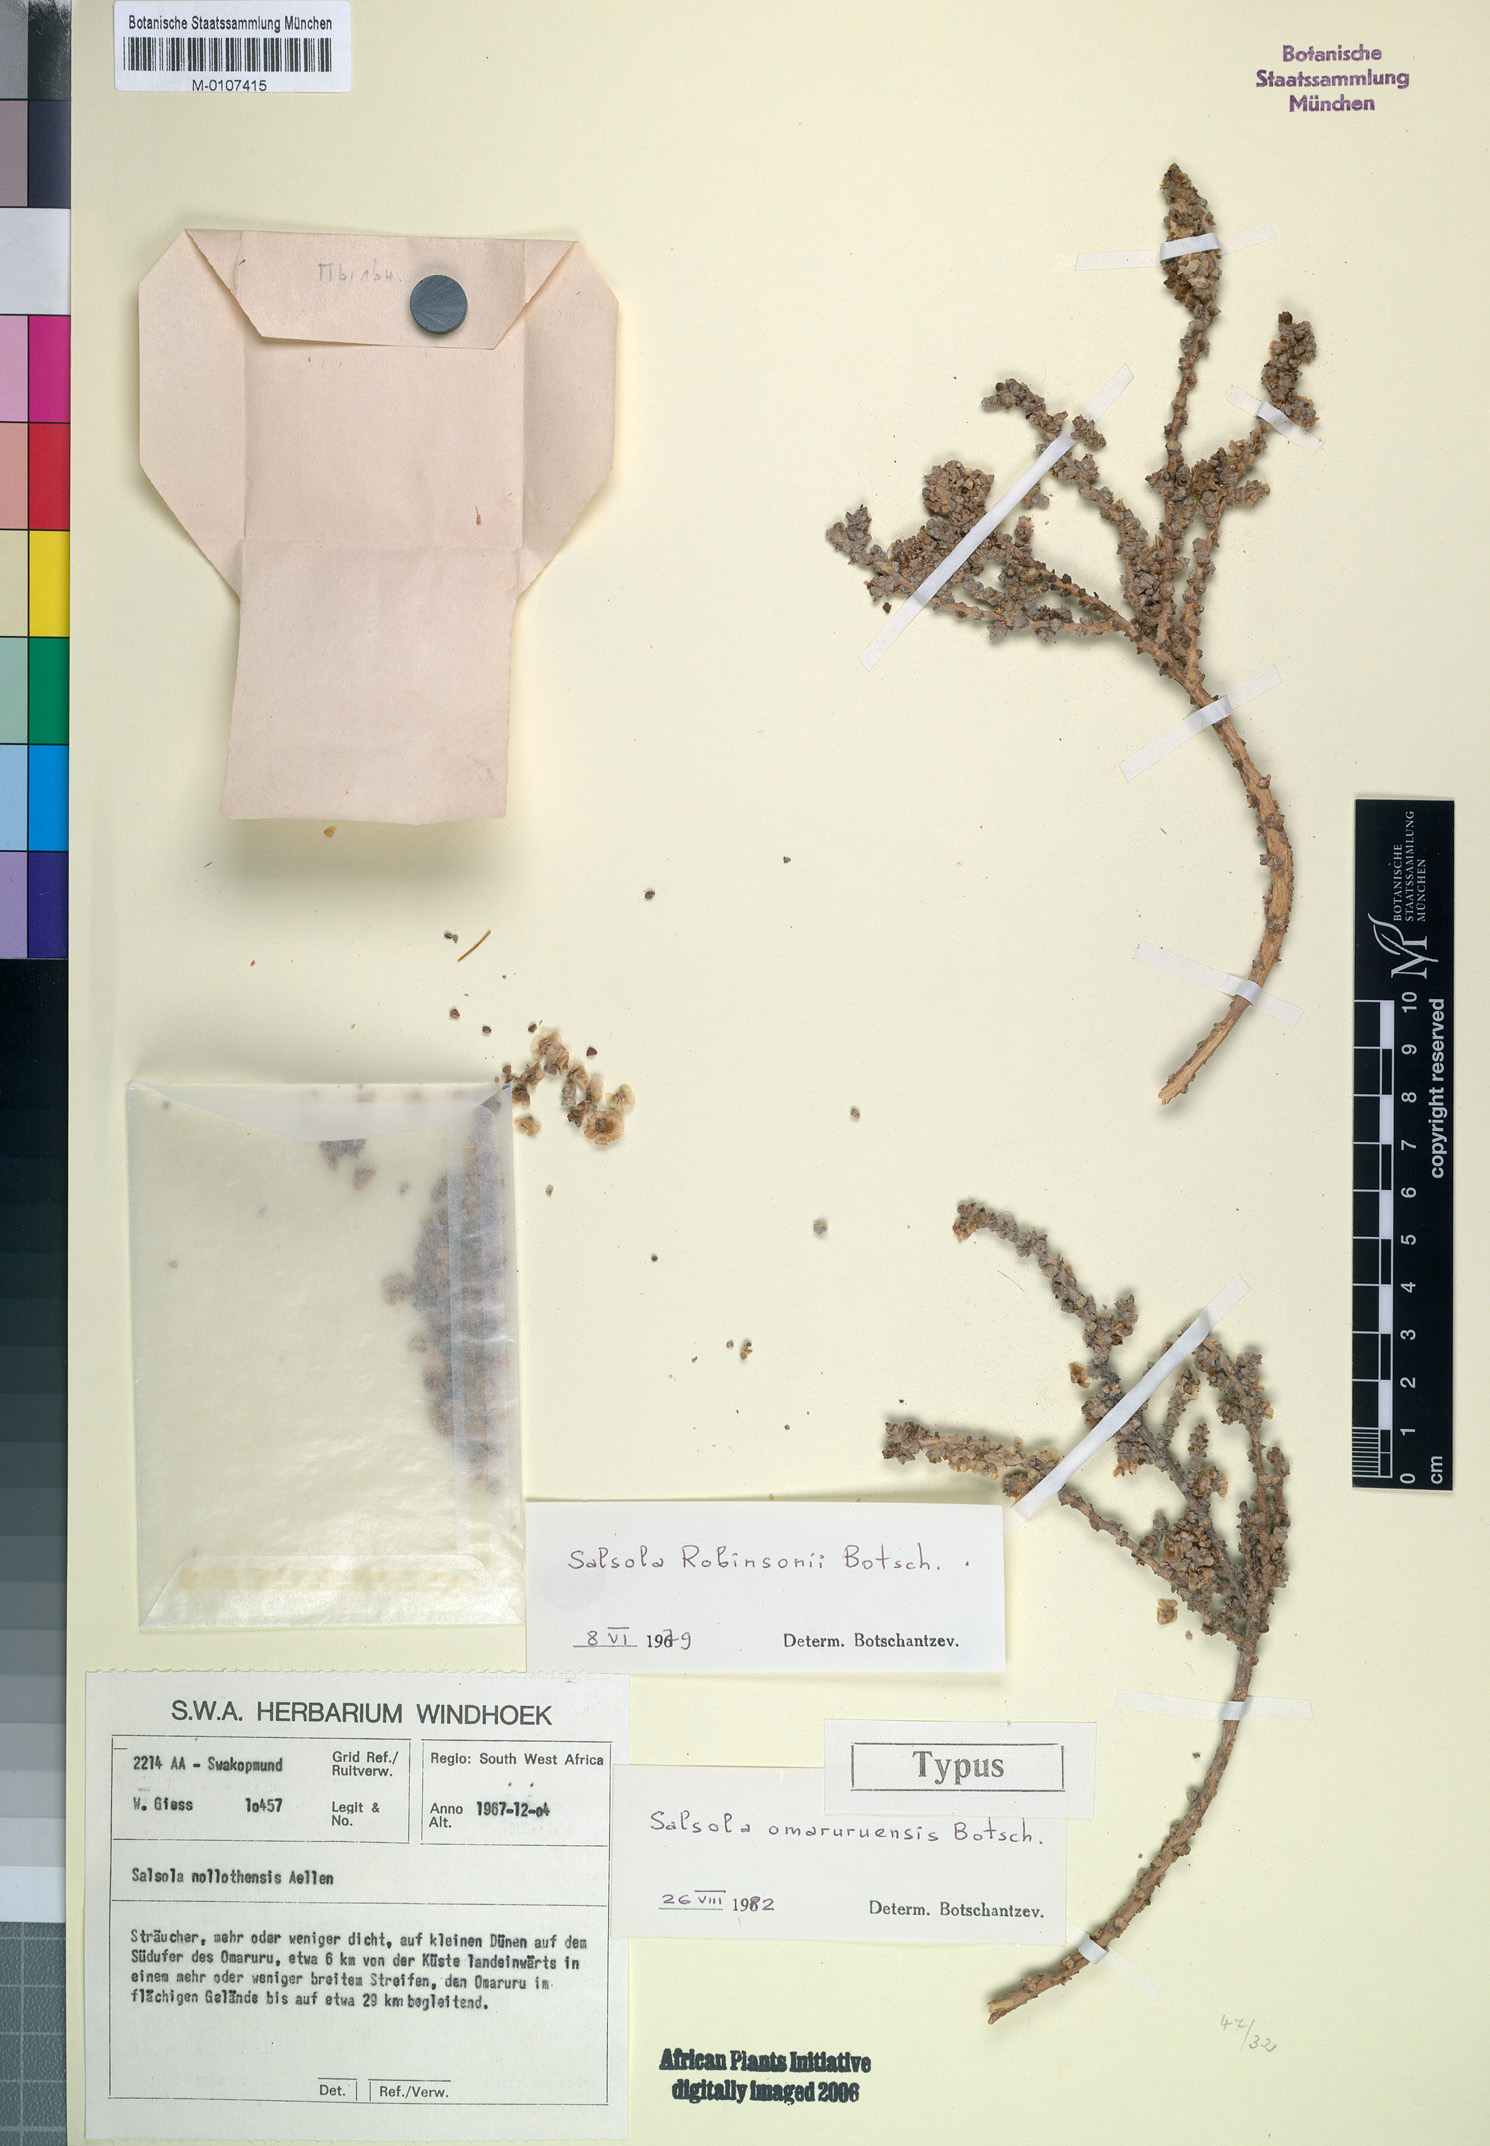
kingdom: Plantae
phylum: Tracheophyta
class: Magnoliopsida
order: Caryophyllales
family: Amaranthaceae
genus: Caroxylon
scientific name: Caroxylon omaruruense
